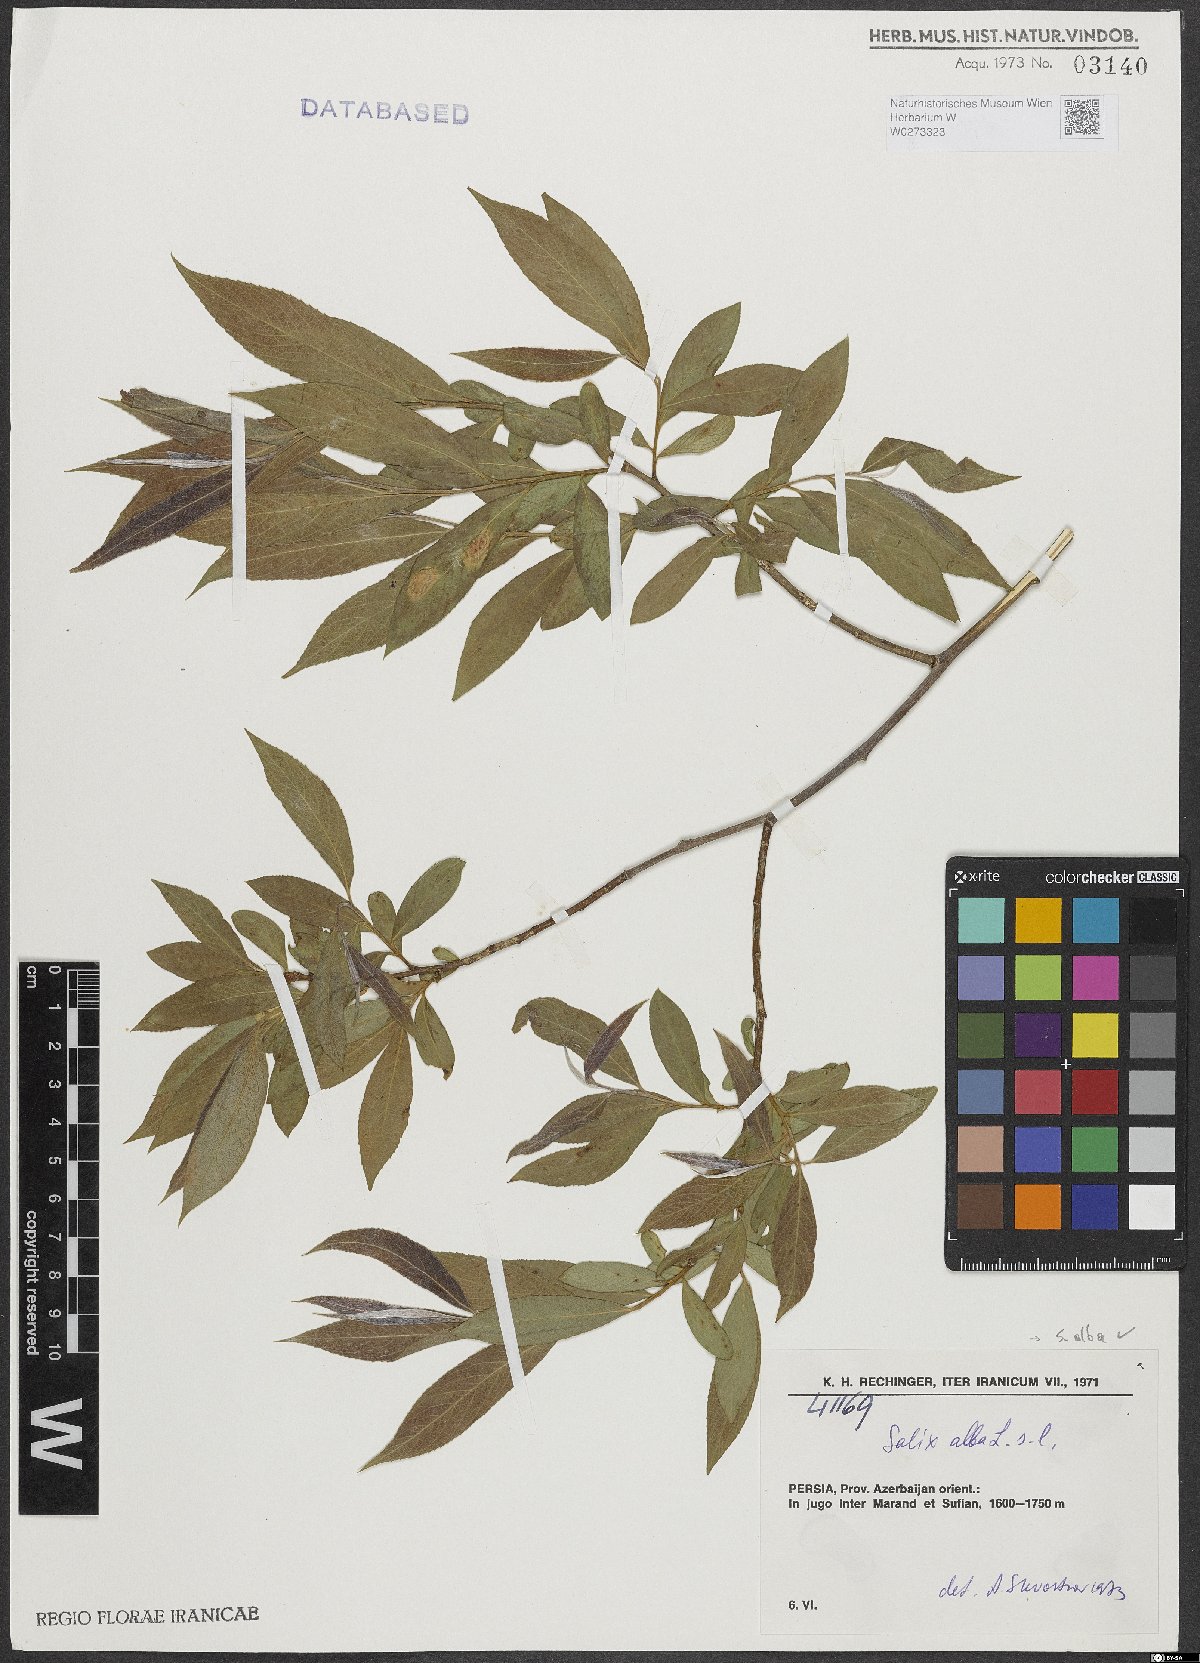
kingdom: Plantae
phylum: Tracheophyta
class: Magnoliopsida
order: Malpighiales
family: Salicaceae
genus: Salix
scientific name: Salix alba
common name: White willow
